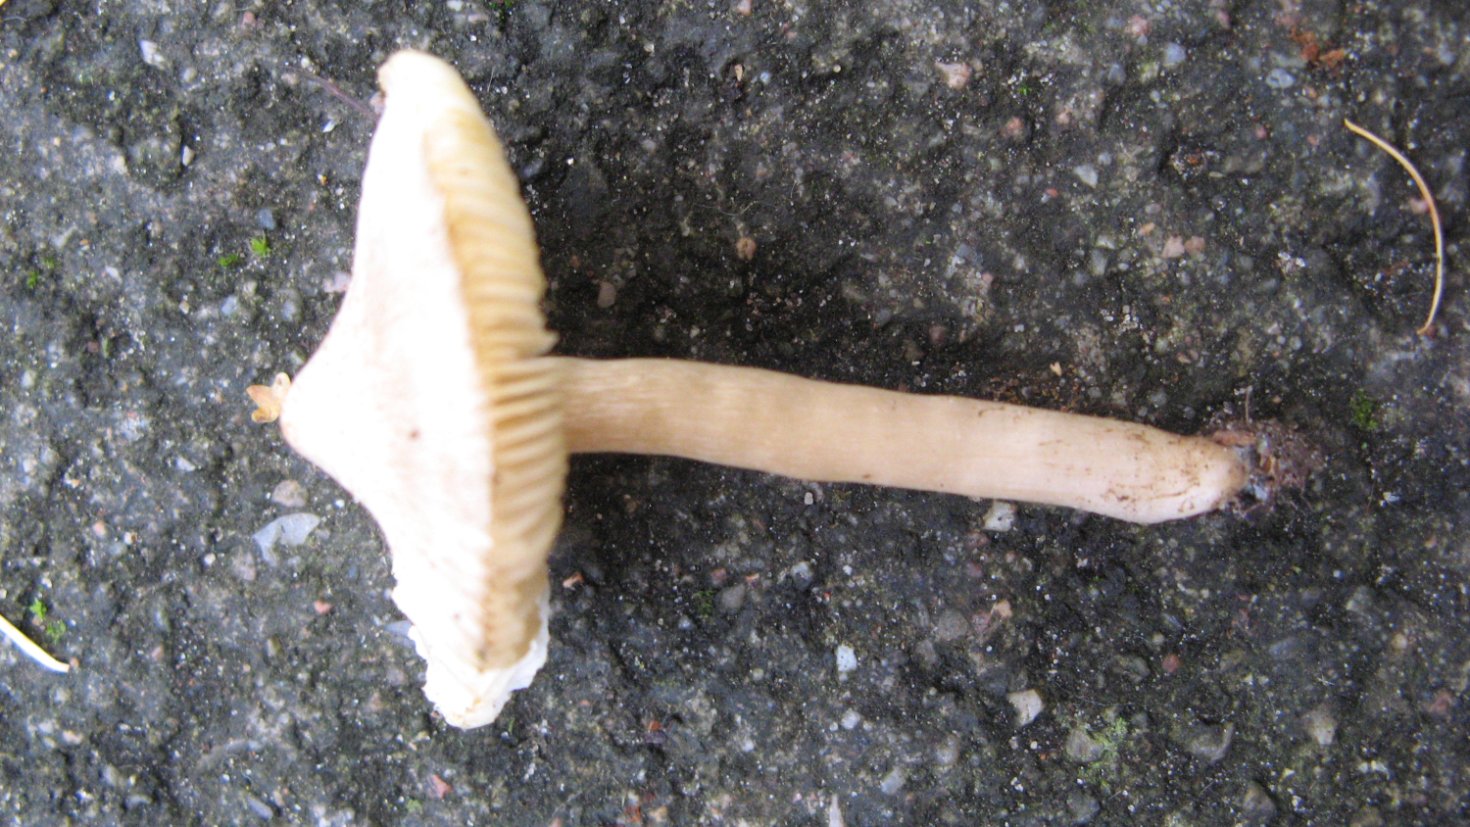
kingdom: Fungi
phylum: Basidiomycota
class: Agaricomycetes
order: Agaricales
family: Tricholomataceae
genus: Tricholoma
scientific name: Tricholoma argyraceum
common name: spids ridderhat
